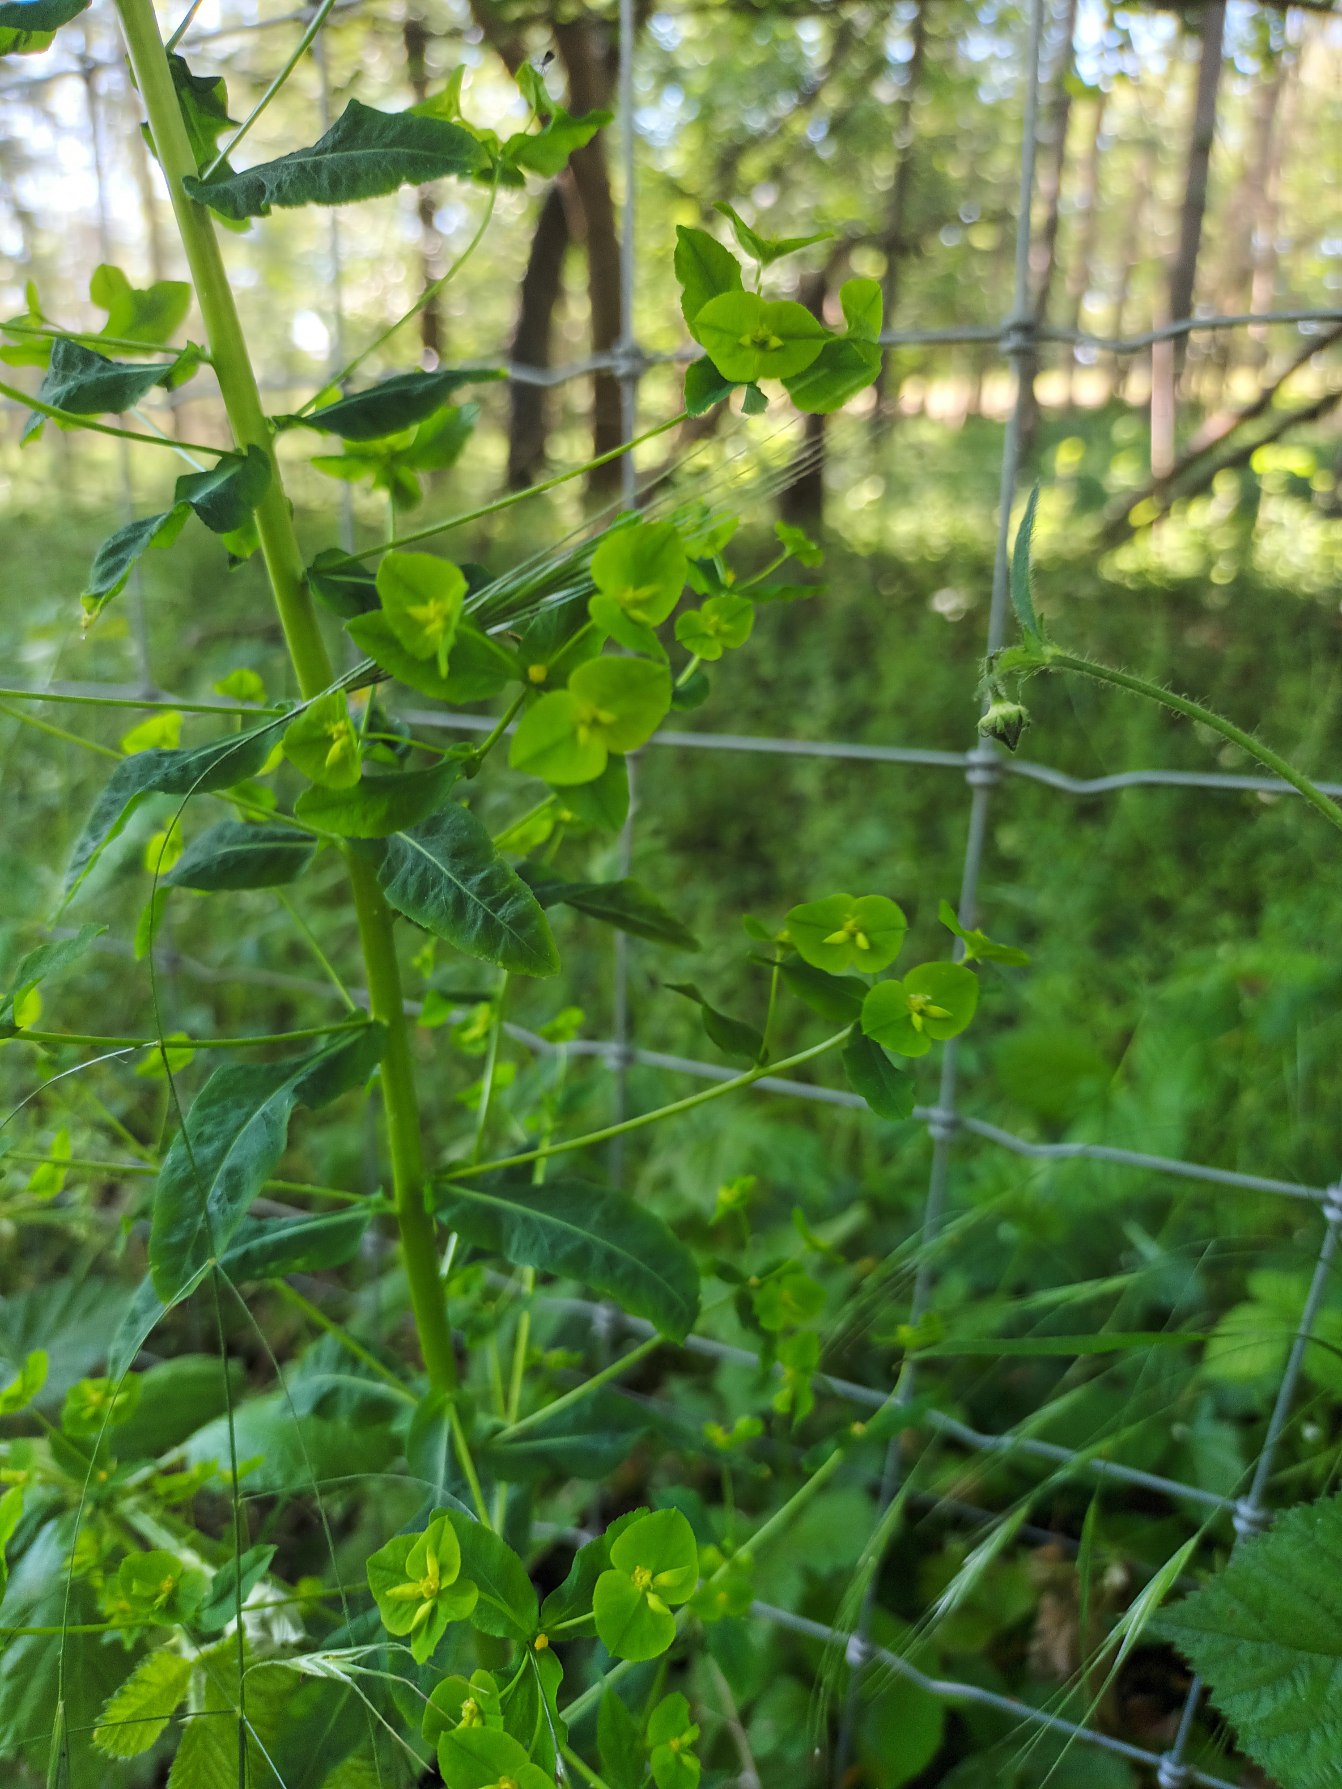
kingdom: Plantae
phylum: Tracheophyta
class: Magnoliopsida
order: Malpighiales
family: Euphorbiaceae
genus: Euphorbia
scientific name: Euphorbia stricta
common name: Opret vortemælk
